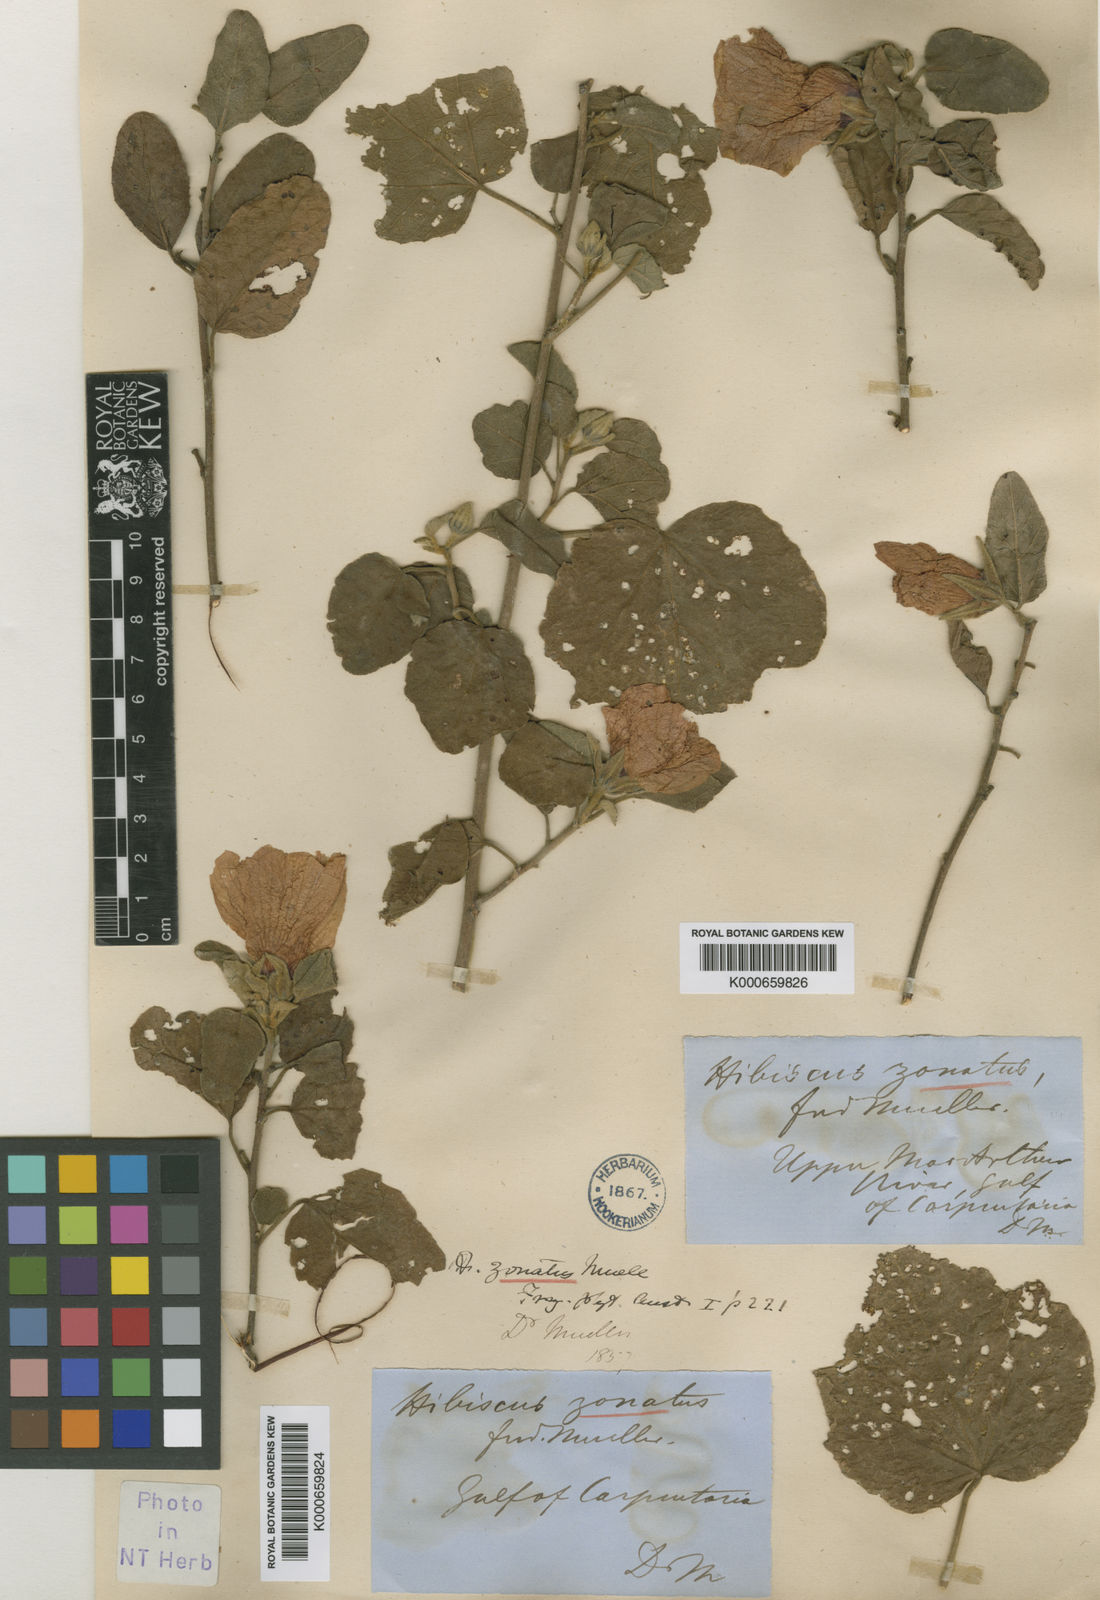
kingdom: Plantae
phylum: Tracheophyta
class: Magnoliopsida
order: Malvales
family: Malvaceae
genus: Hibiscus
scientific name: Hibiscus zonatus
